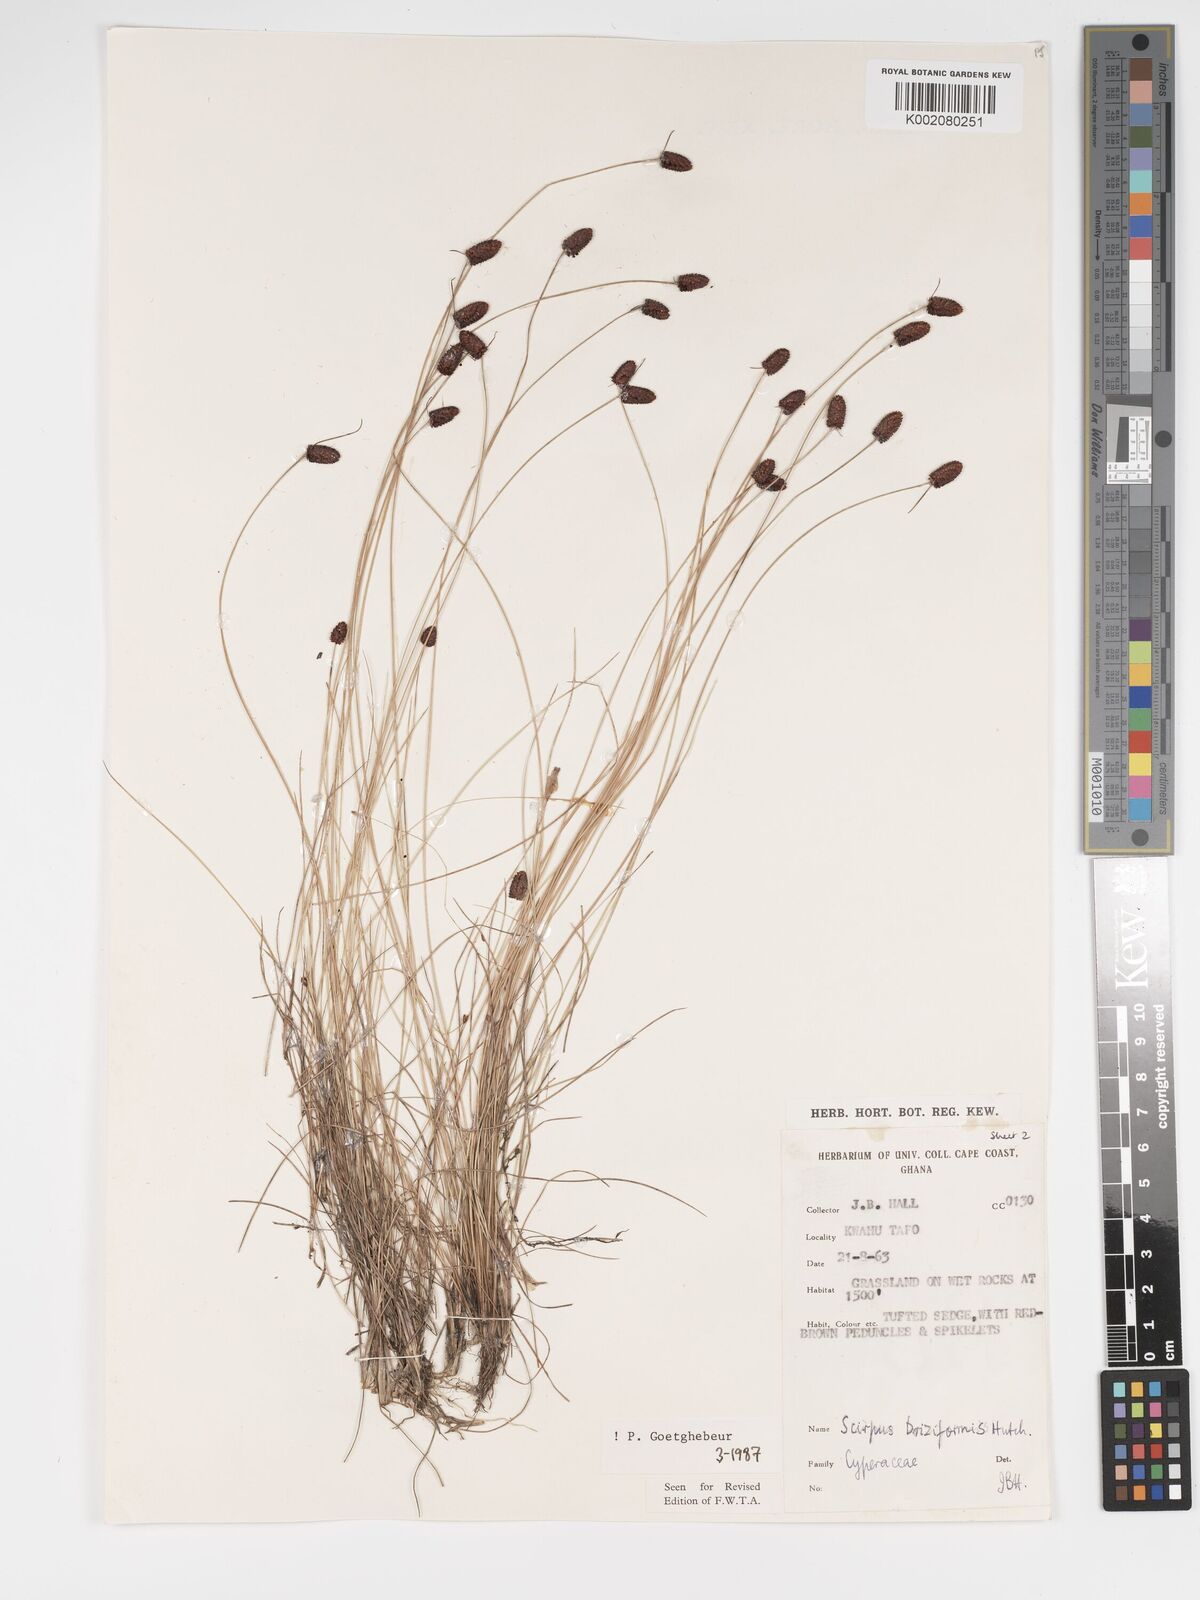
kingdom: Plantae
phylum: Tracheophyta
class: Liliopsida
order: Poales
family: Cyperaceae
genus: Bulbostylis
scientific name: Bulbostylis briziformis
